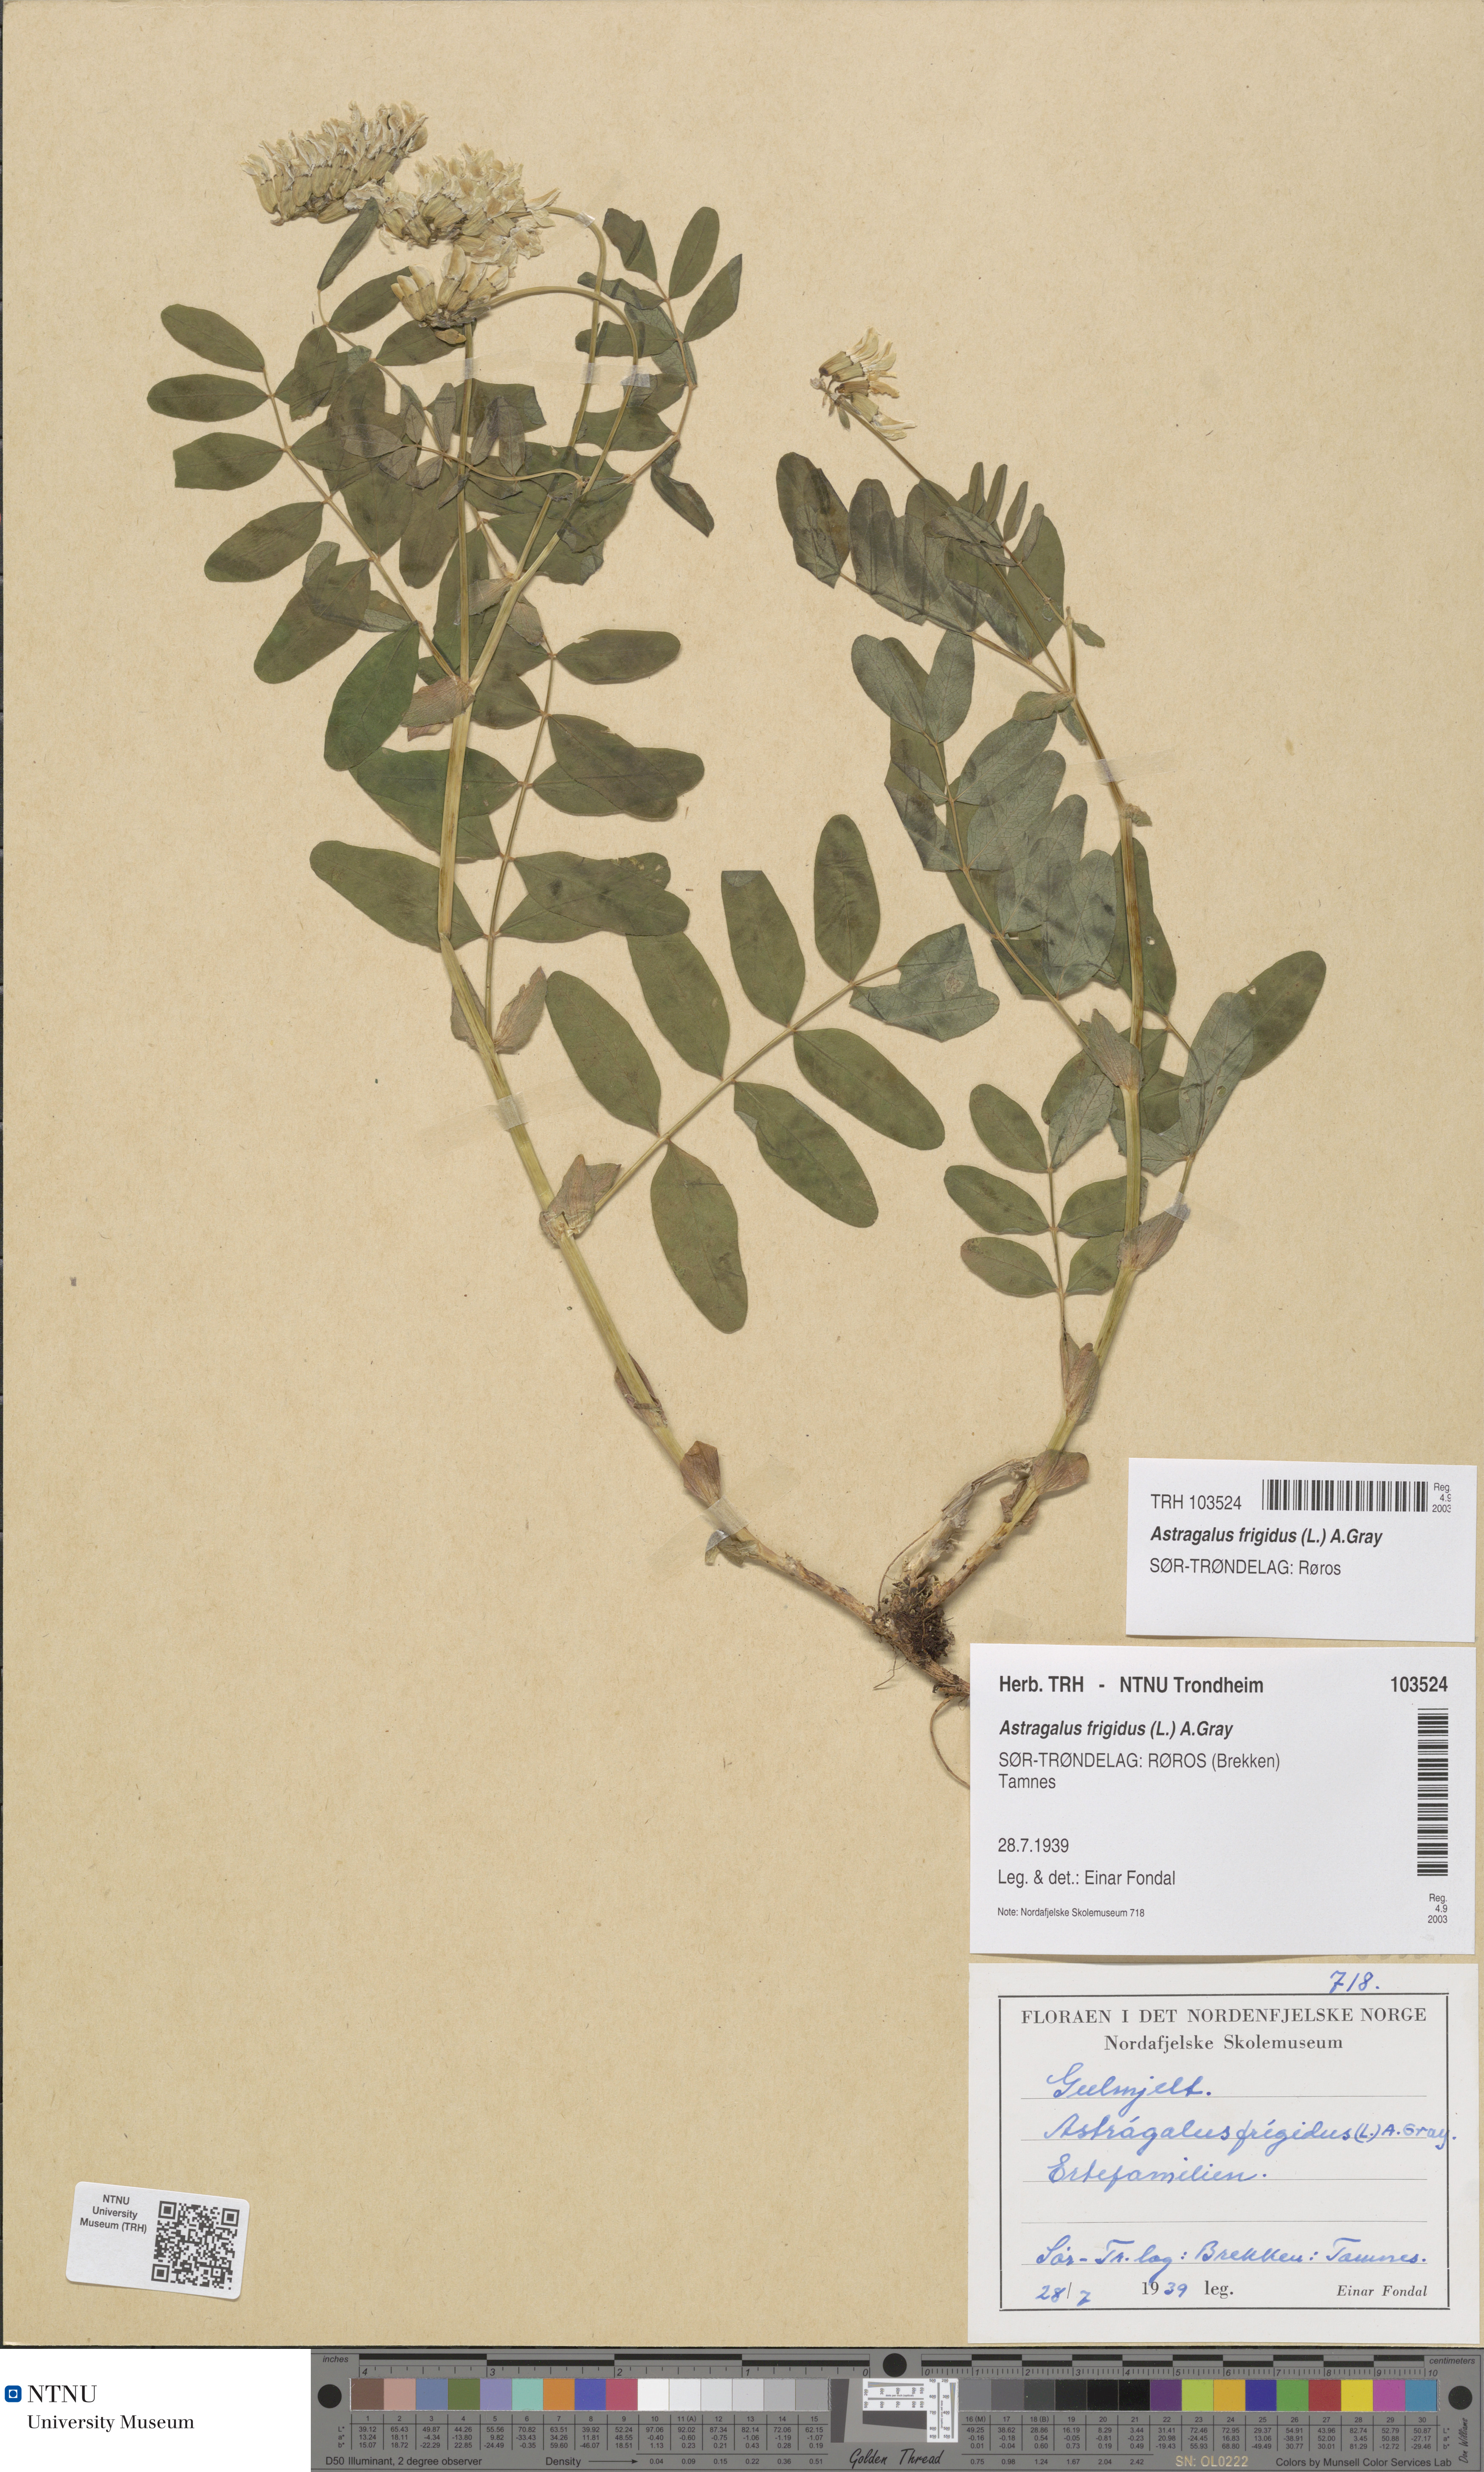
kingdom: Plantae
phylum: Tracheophyta
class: Magnoliopsida
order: Fabales
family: Fabaceae
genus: Astragalus
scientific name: Astragalus frigidus
